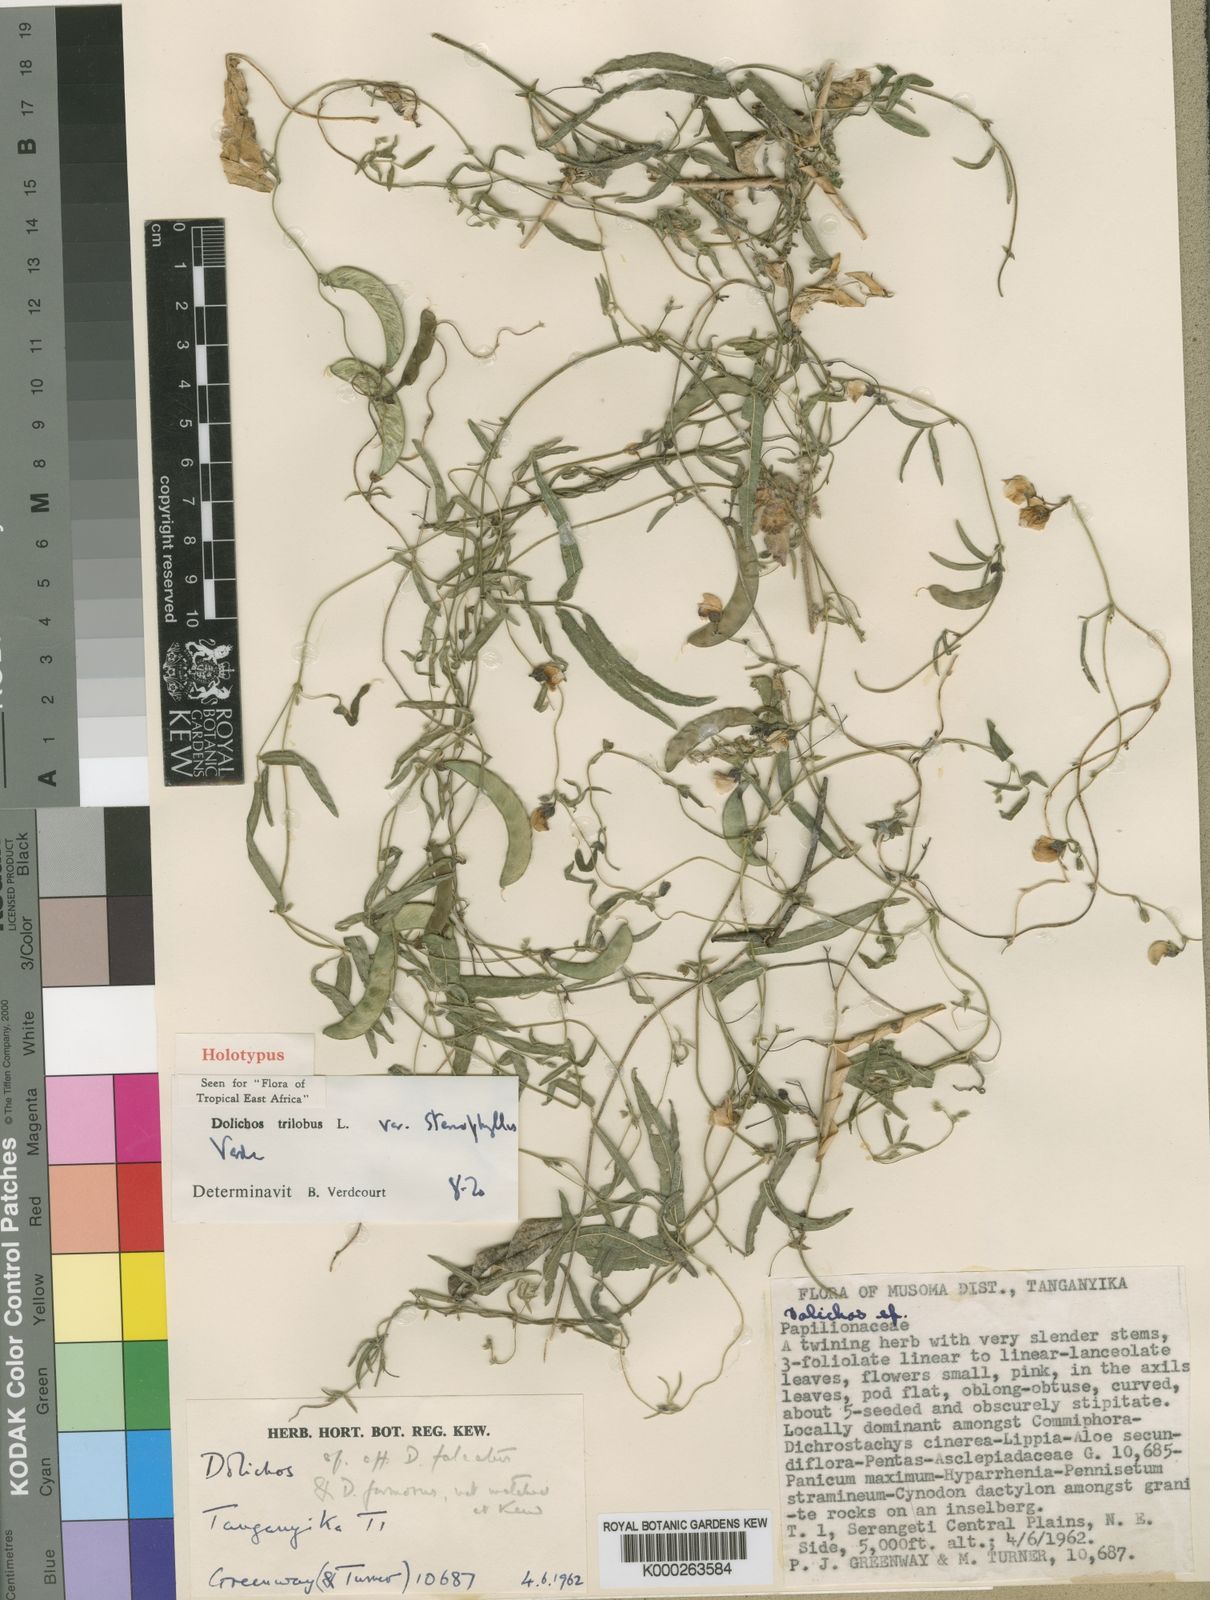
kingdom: Plantae
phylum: Tracheophyta
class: Magnoliopsida
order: Fabales
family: Fabaceae
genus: Dolichos
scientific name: Dolichos trilobus
